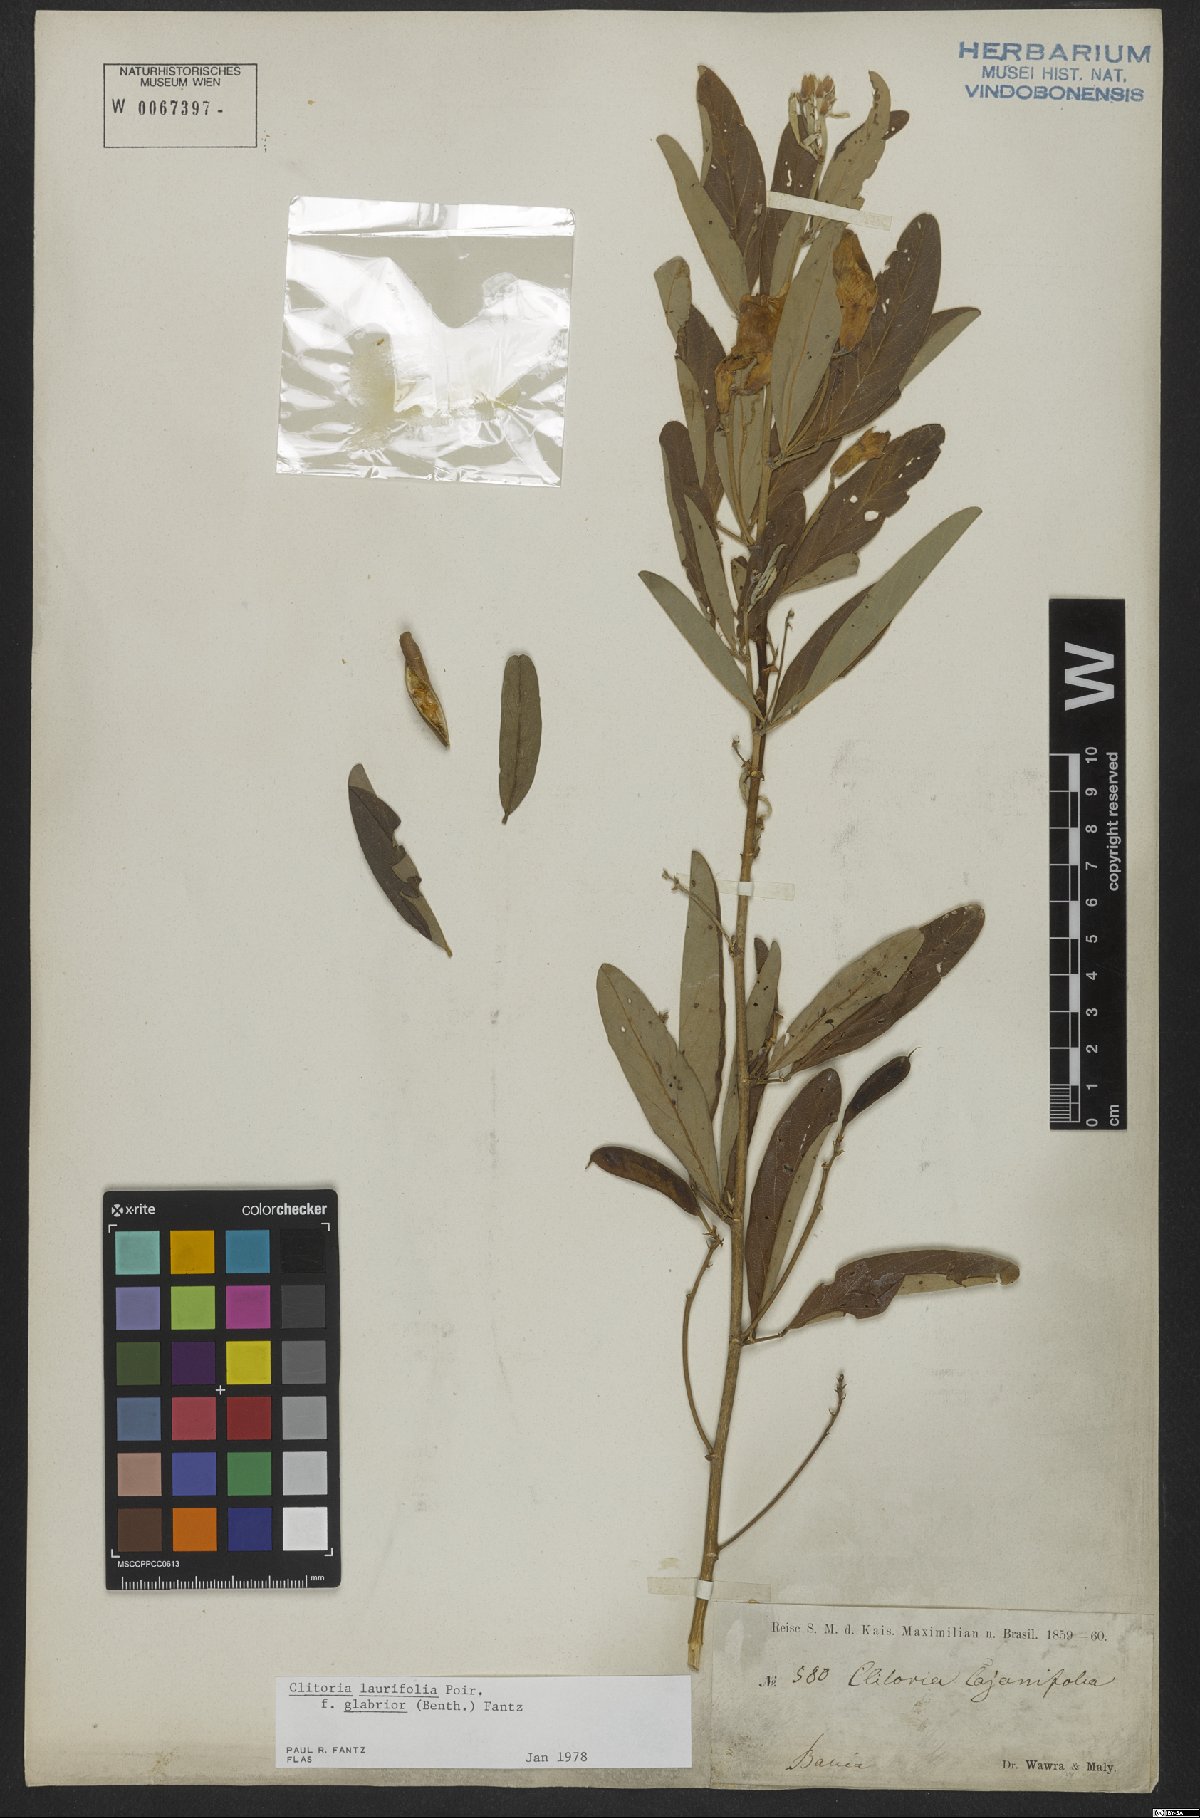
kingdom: Plantae
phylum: Tracheophyta
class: Magnoliopsida
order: Fabales
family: Fabaceae
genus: Clitoria
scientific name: Clitoria laurifolia
